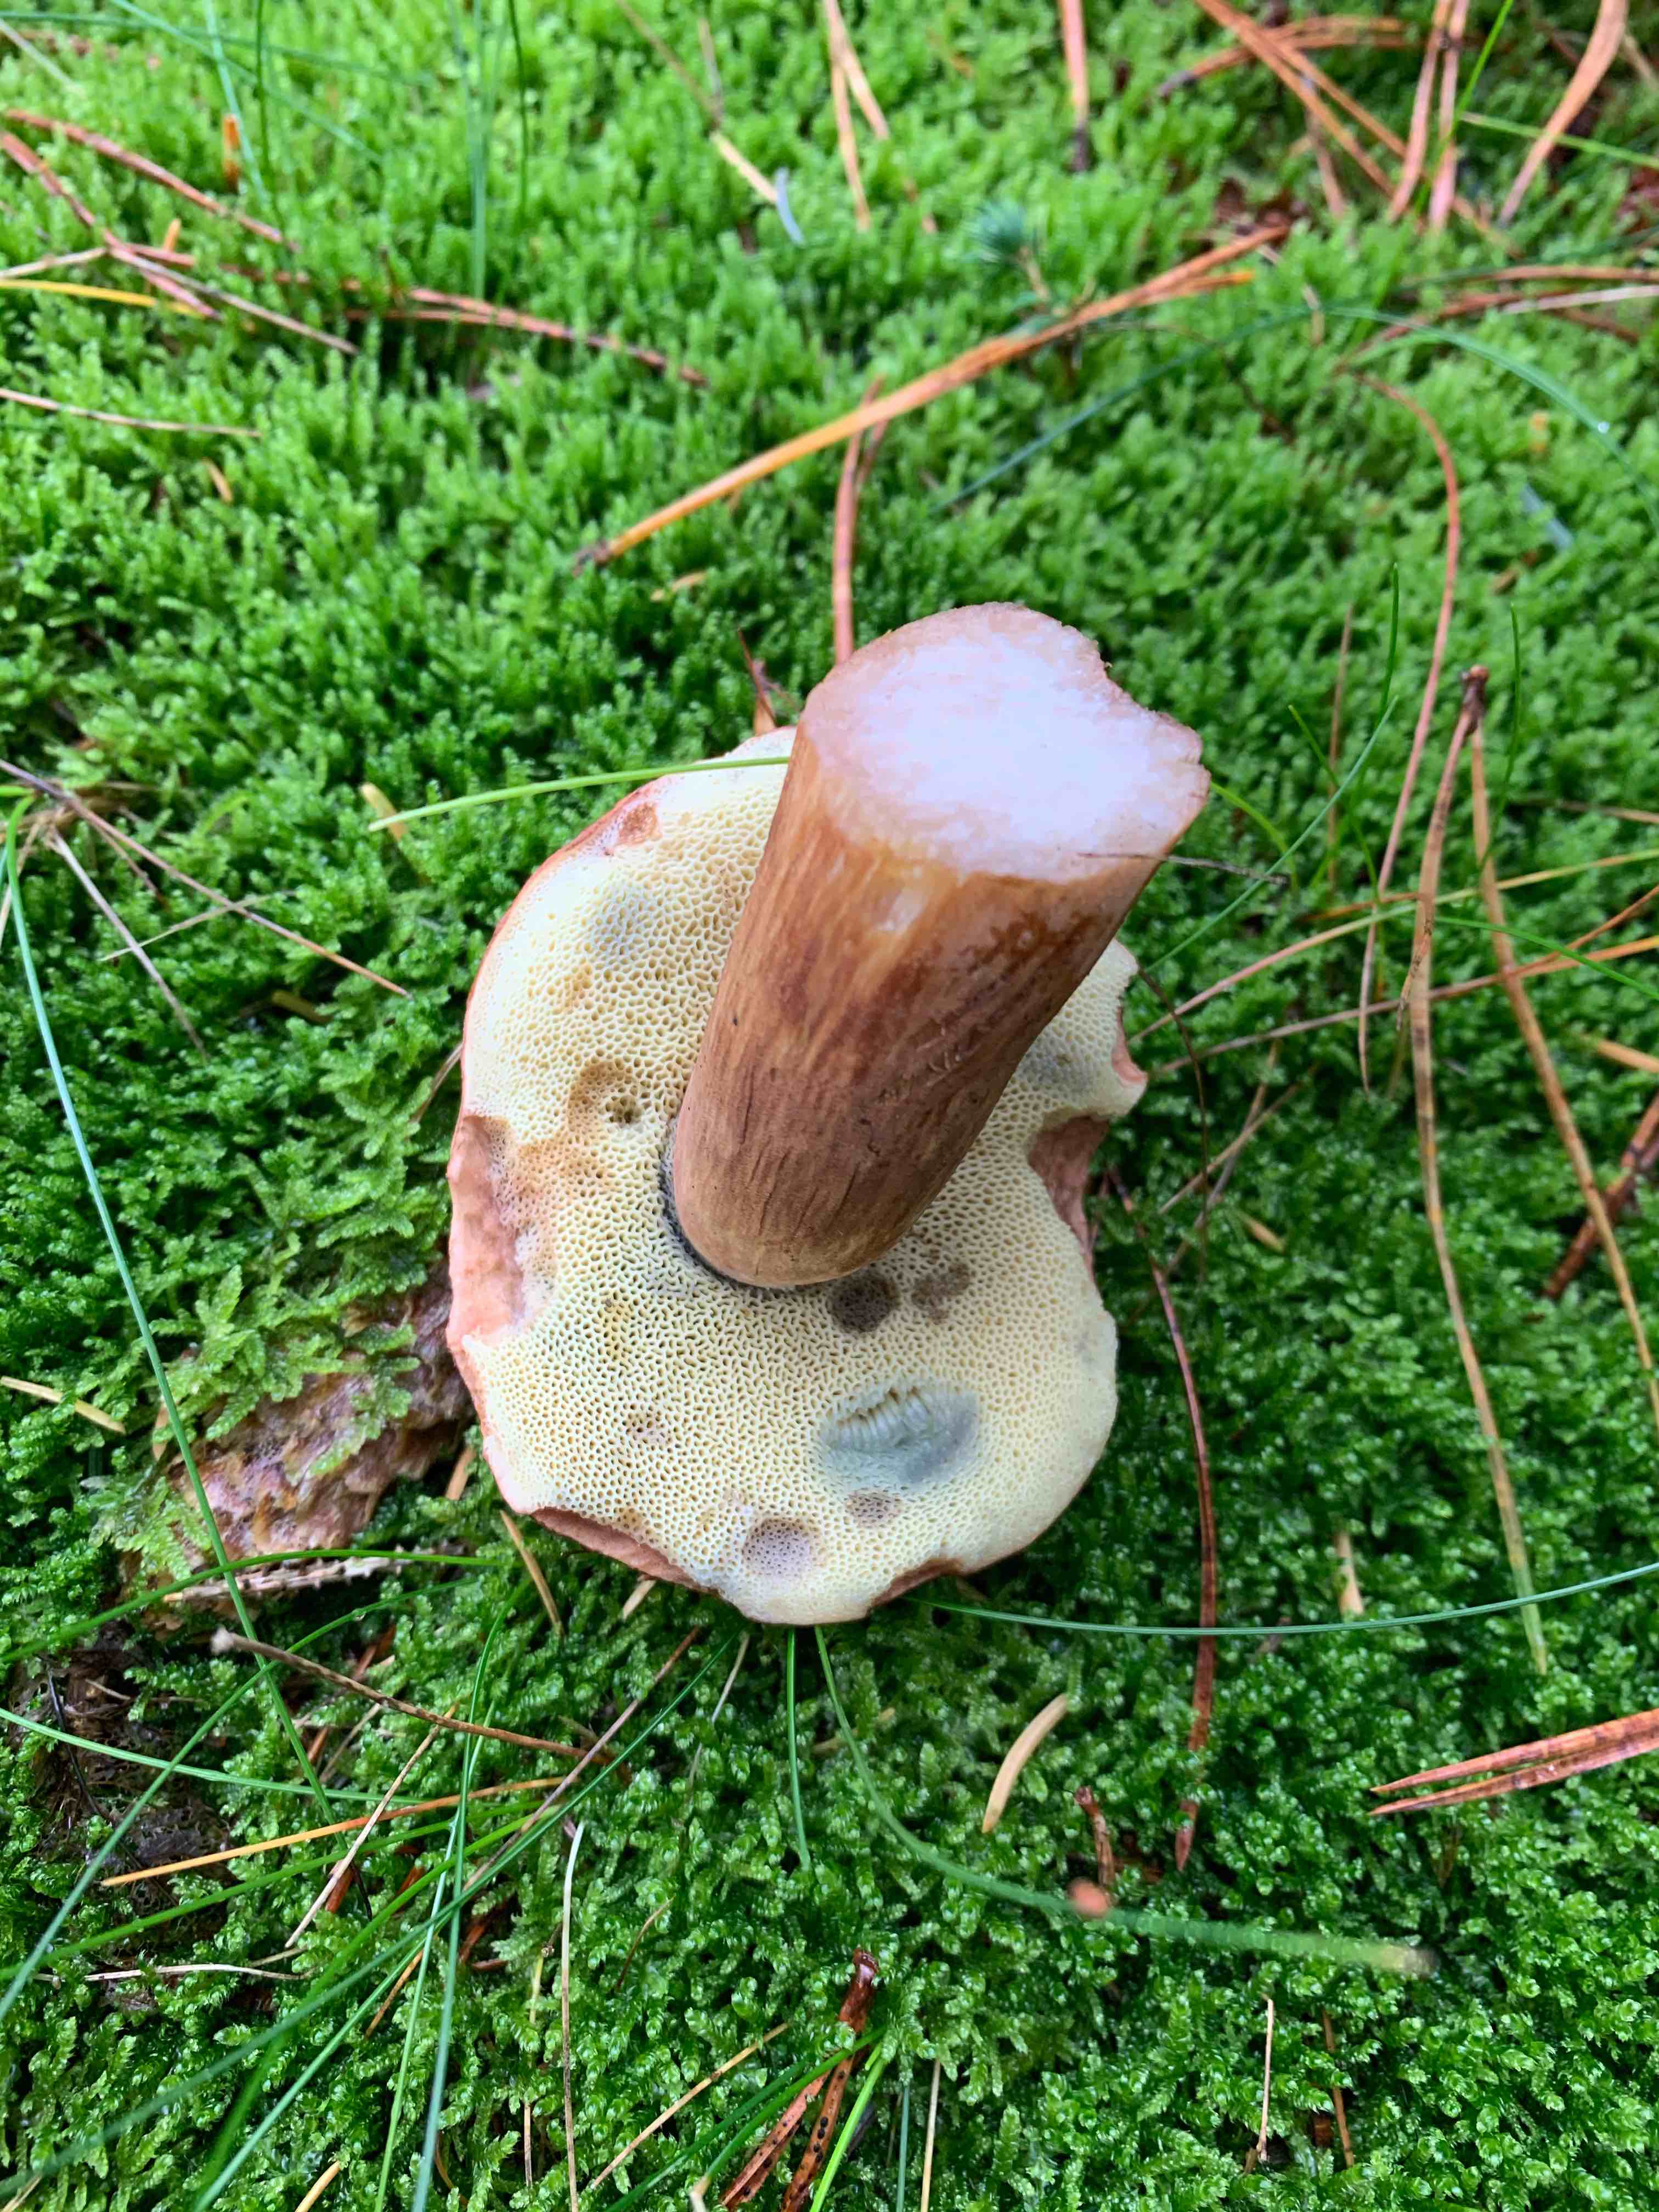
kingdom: Fungi
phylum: Basidiomycota
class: Agaricomycetes
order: Boletales
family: Boletaceae
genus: Imleria
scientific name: Imleria badia
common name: brunstokket rørhat
